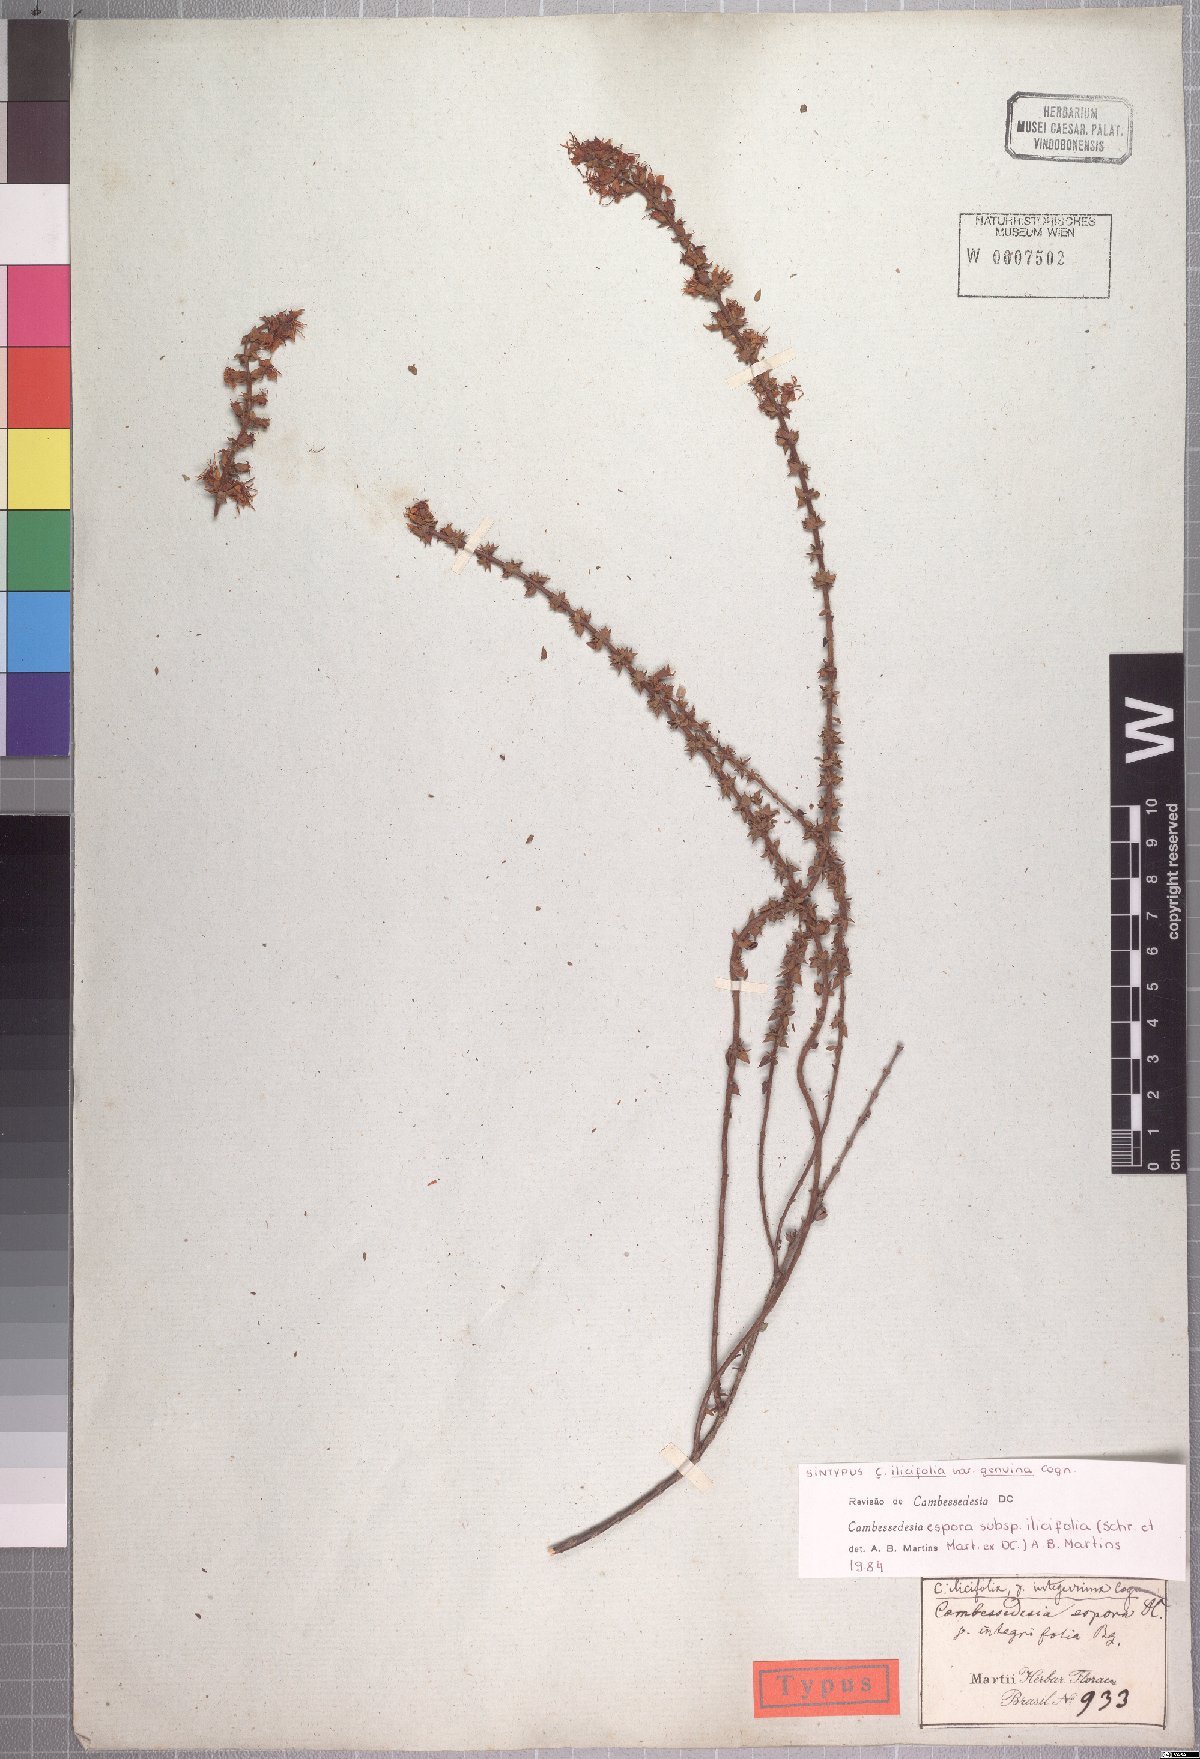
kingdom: Plantae
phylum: Tracheophyta
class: Magnoliopsida
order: Myrtales
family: Melastomataceae
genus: Cambessedesia
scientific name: Cambessedesia espora
